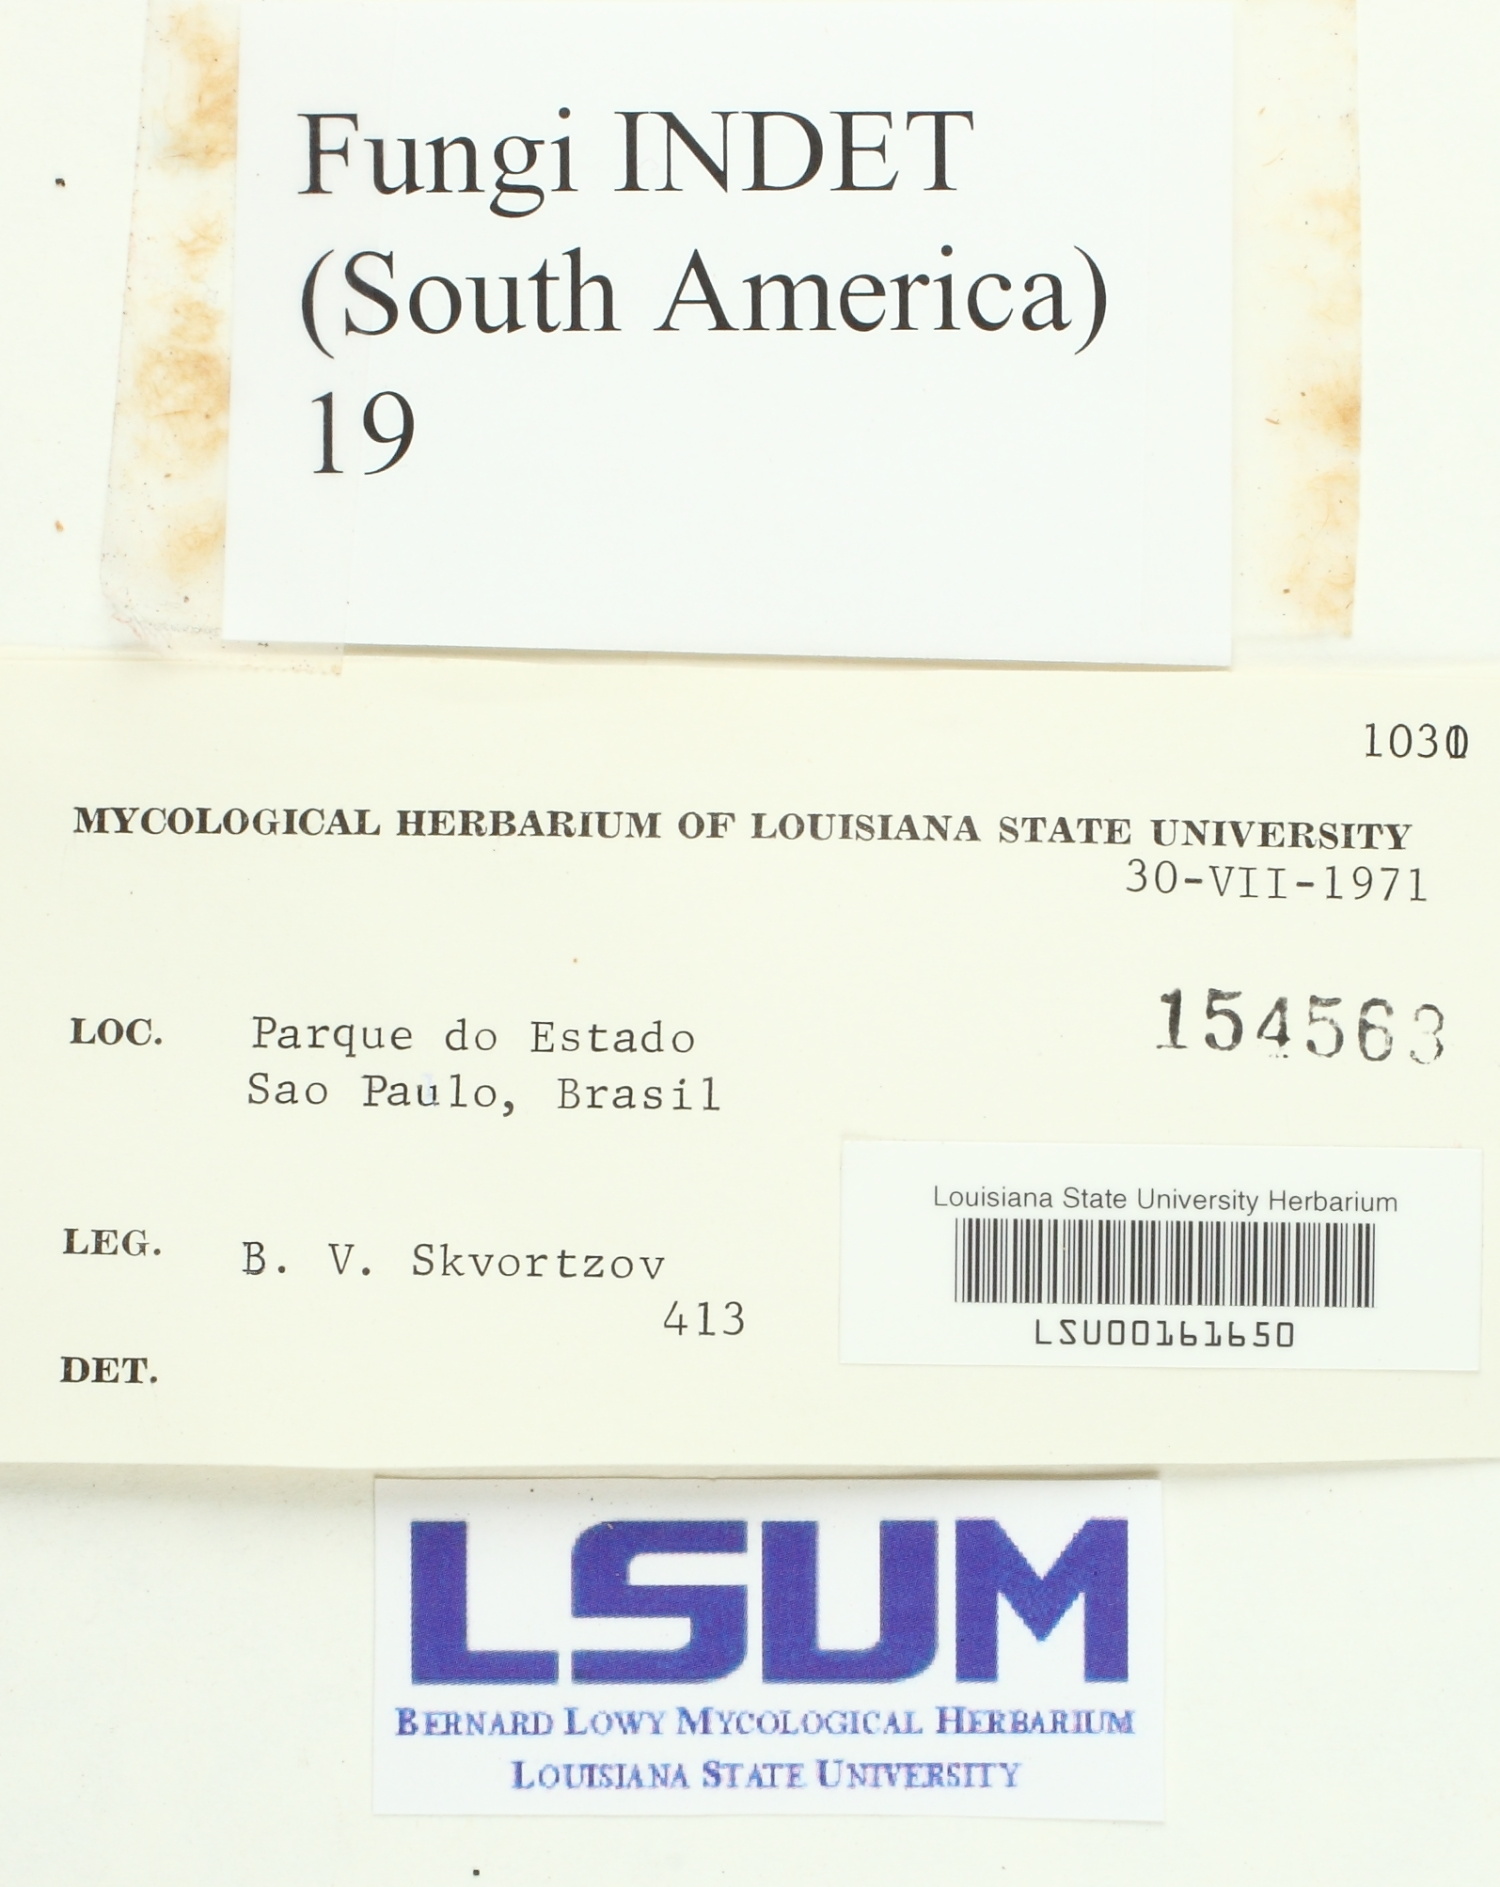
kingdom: Fungi
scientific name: Fungi
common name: Fungi
